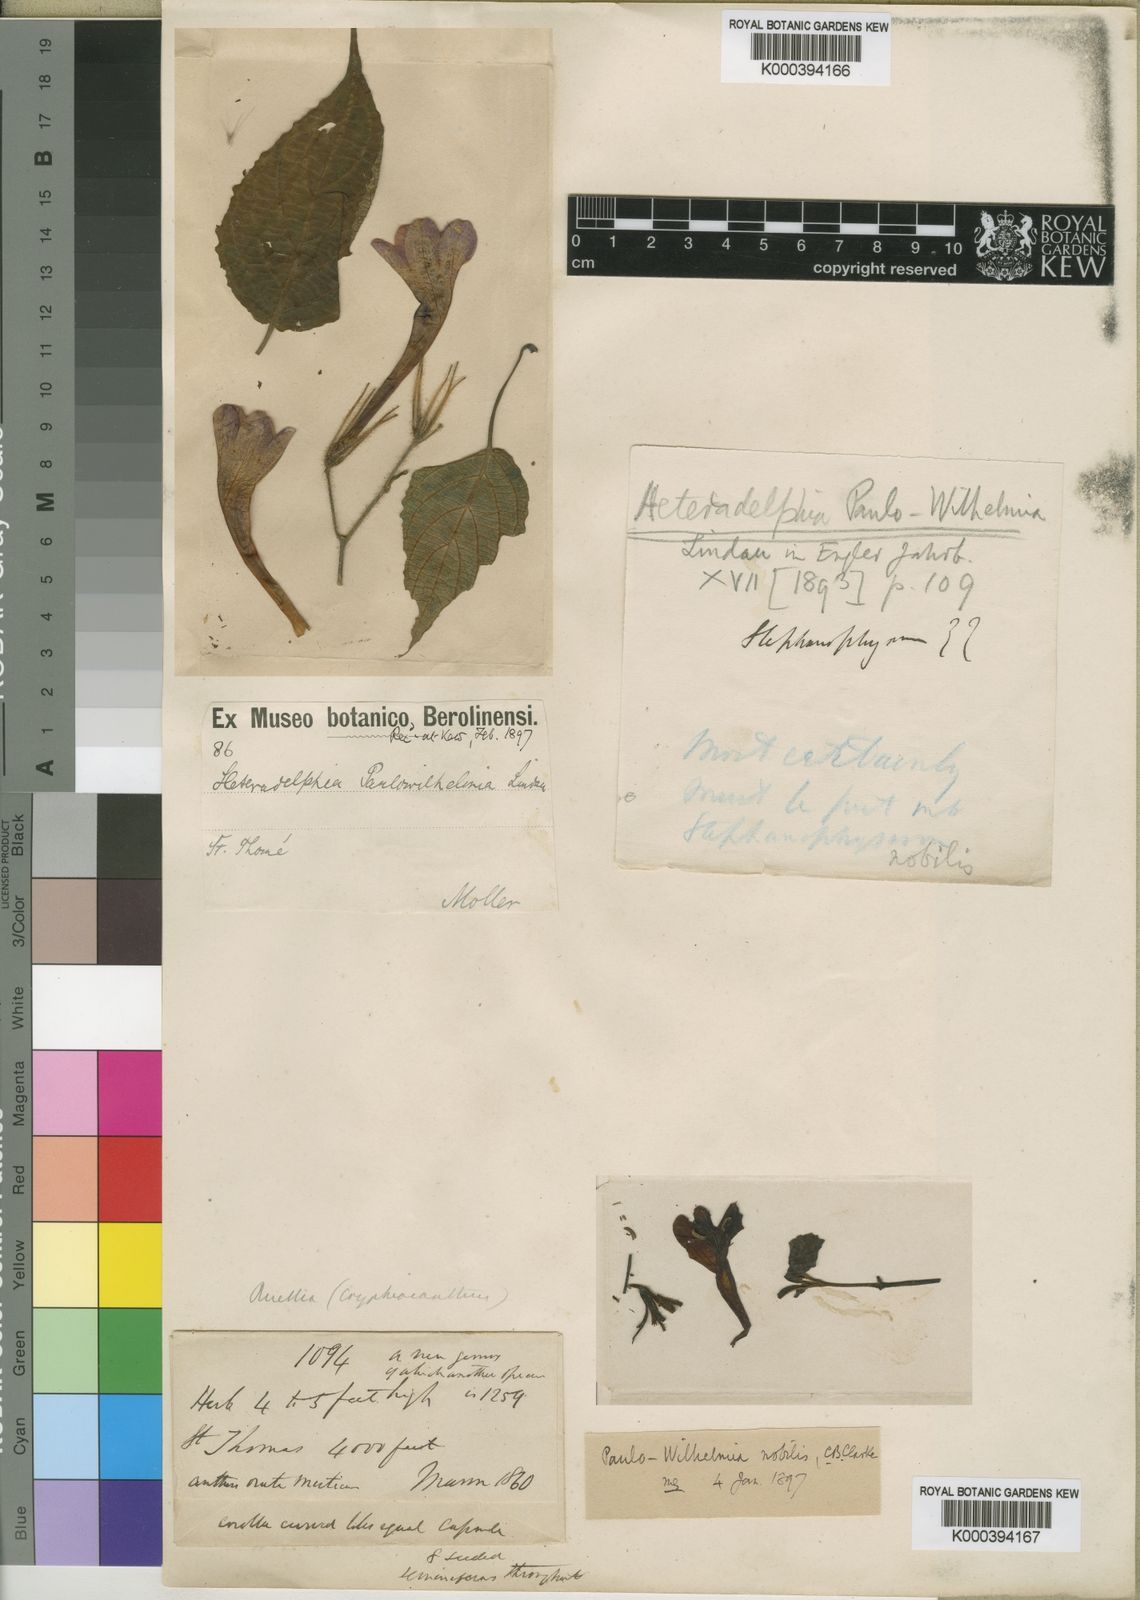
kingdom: Plantae
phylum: Tracheophyta
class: Magnoliopsida
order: Lamiales
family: Acanthaceae
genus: Heteradelphia
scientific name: Heteradelphia paulowilhelmia
